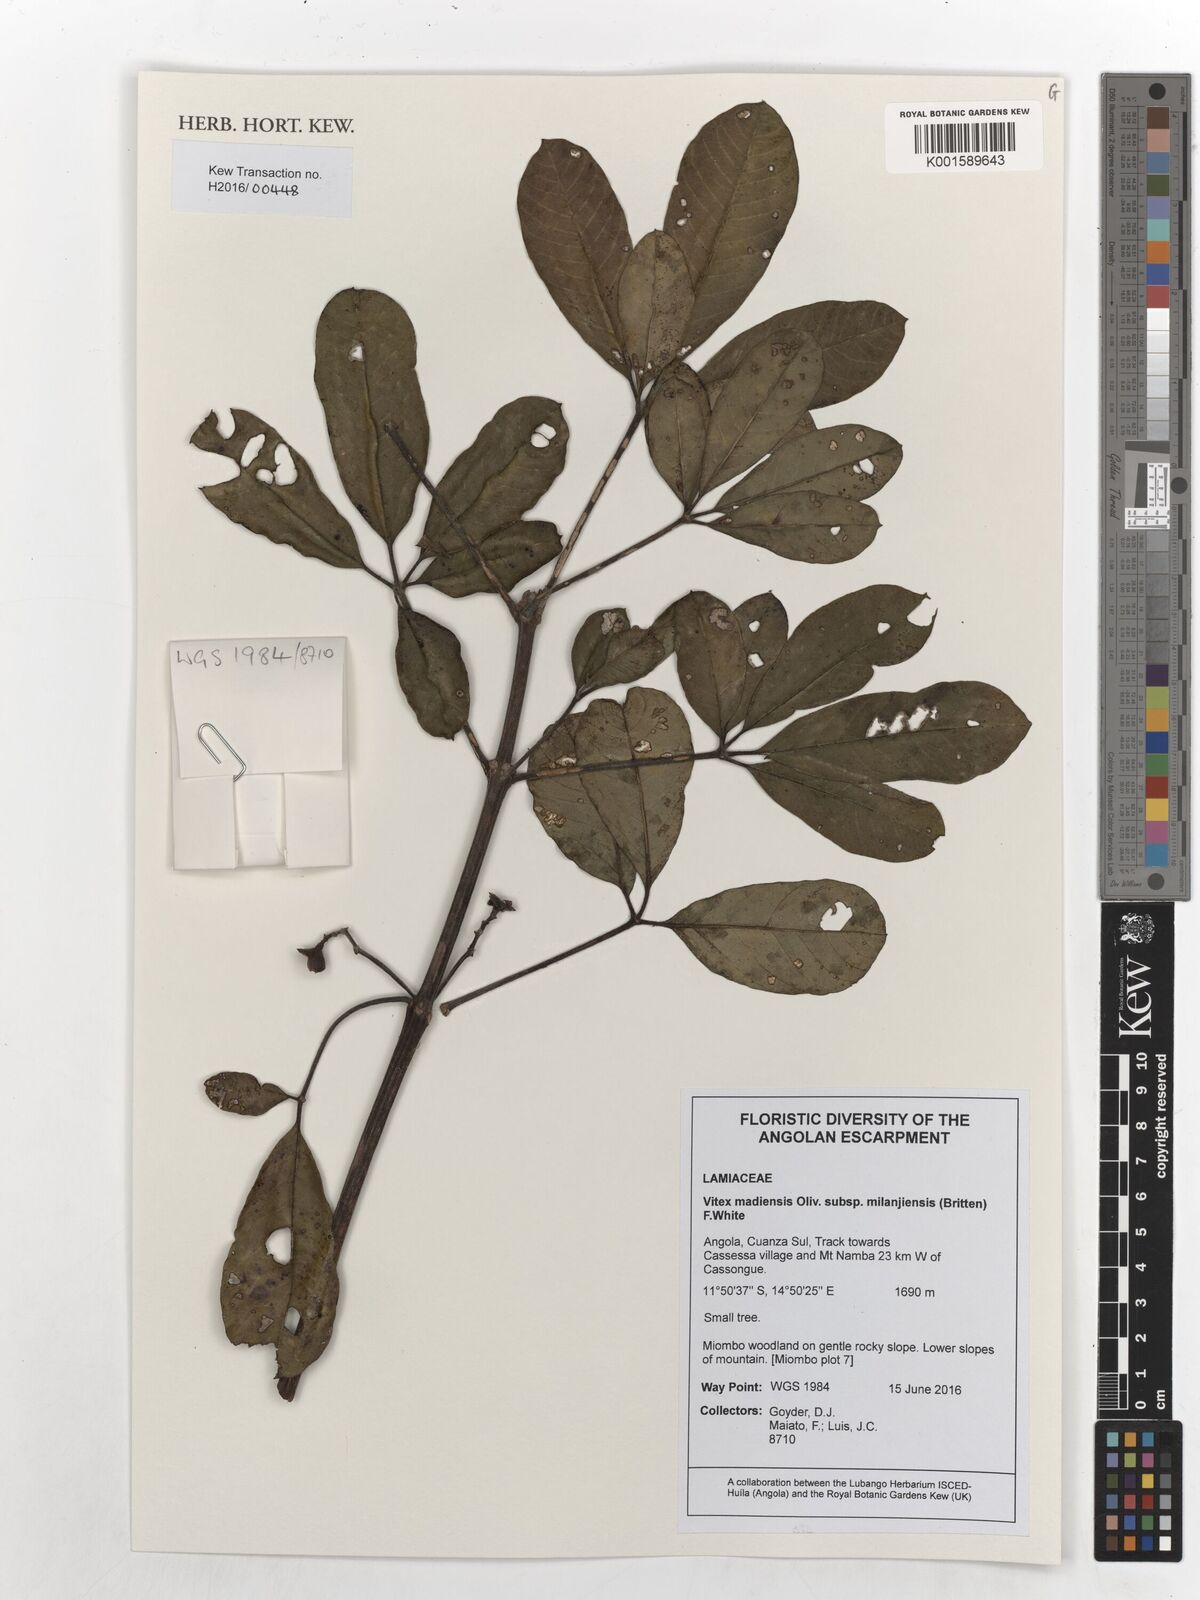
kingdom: Plantae
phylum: Tracheophyta
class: Magnoliopsida
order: Lamiales
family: Lamiaceae
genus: Vitex
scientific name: Vitex madiensis
